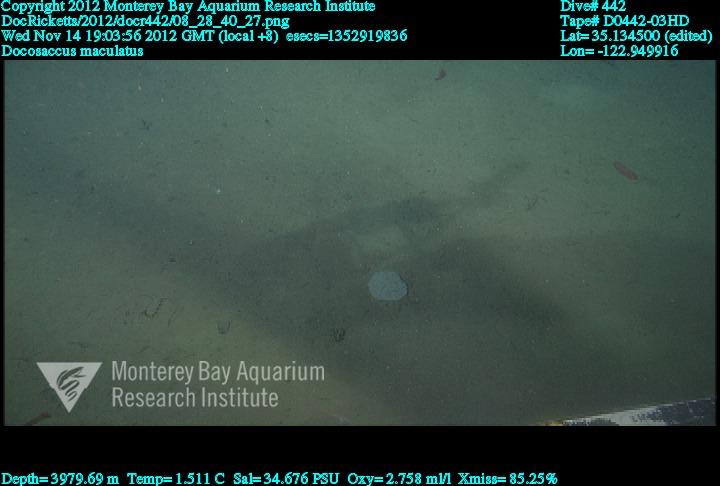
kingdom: Animalia
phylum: Porifera
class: Hexactinellida
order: Lyssacinosida
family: Euplectellidae
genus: Docosaccus
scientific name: Docosaccus maculatus
